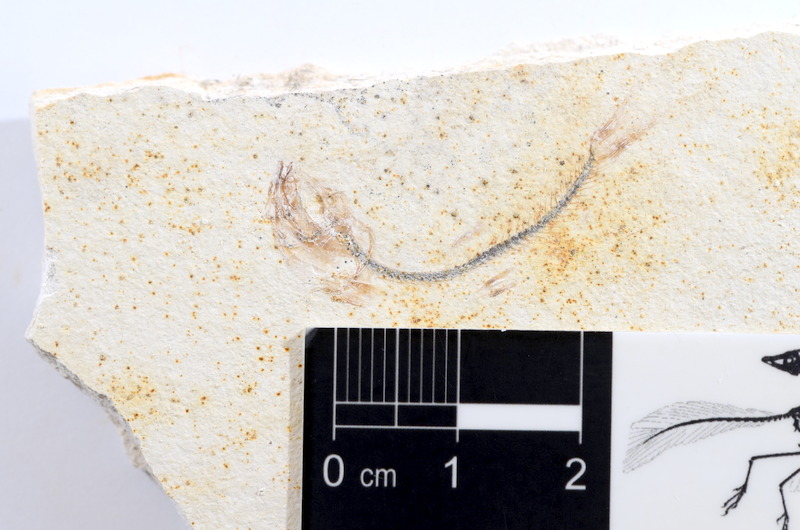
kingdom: Animalia
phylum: Chordata
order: Salmoniformes
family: Orthogonikleithridae
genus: Orthogonikleithrus
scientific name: Orthogonikleithrus hoelli
